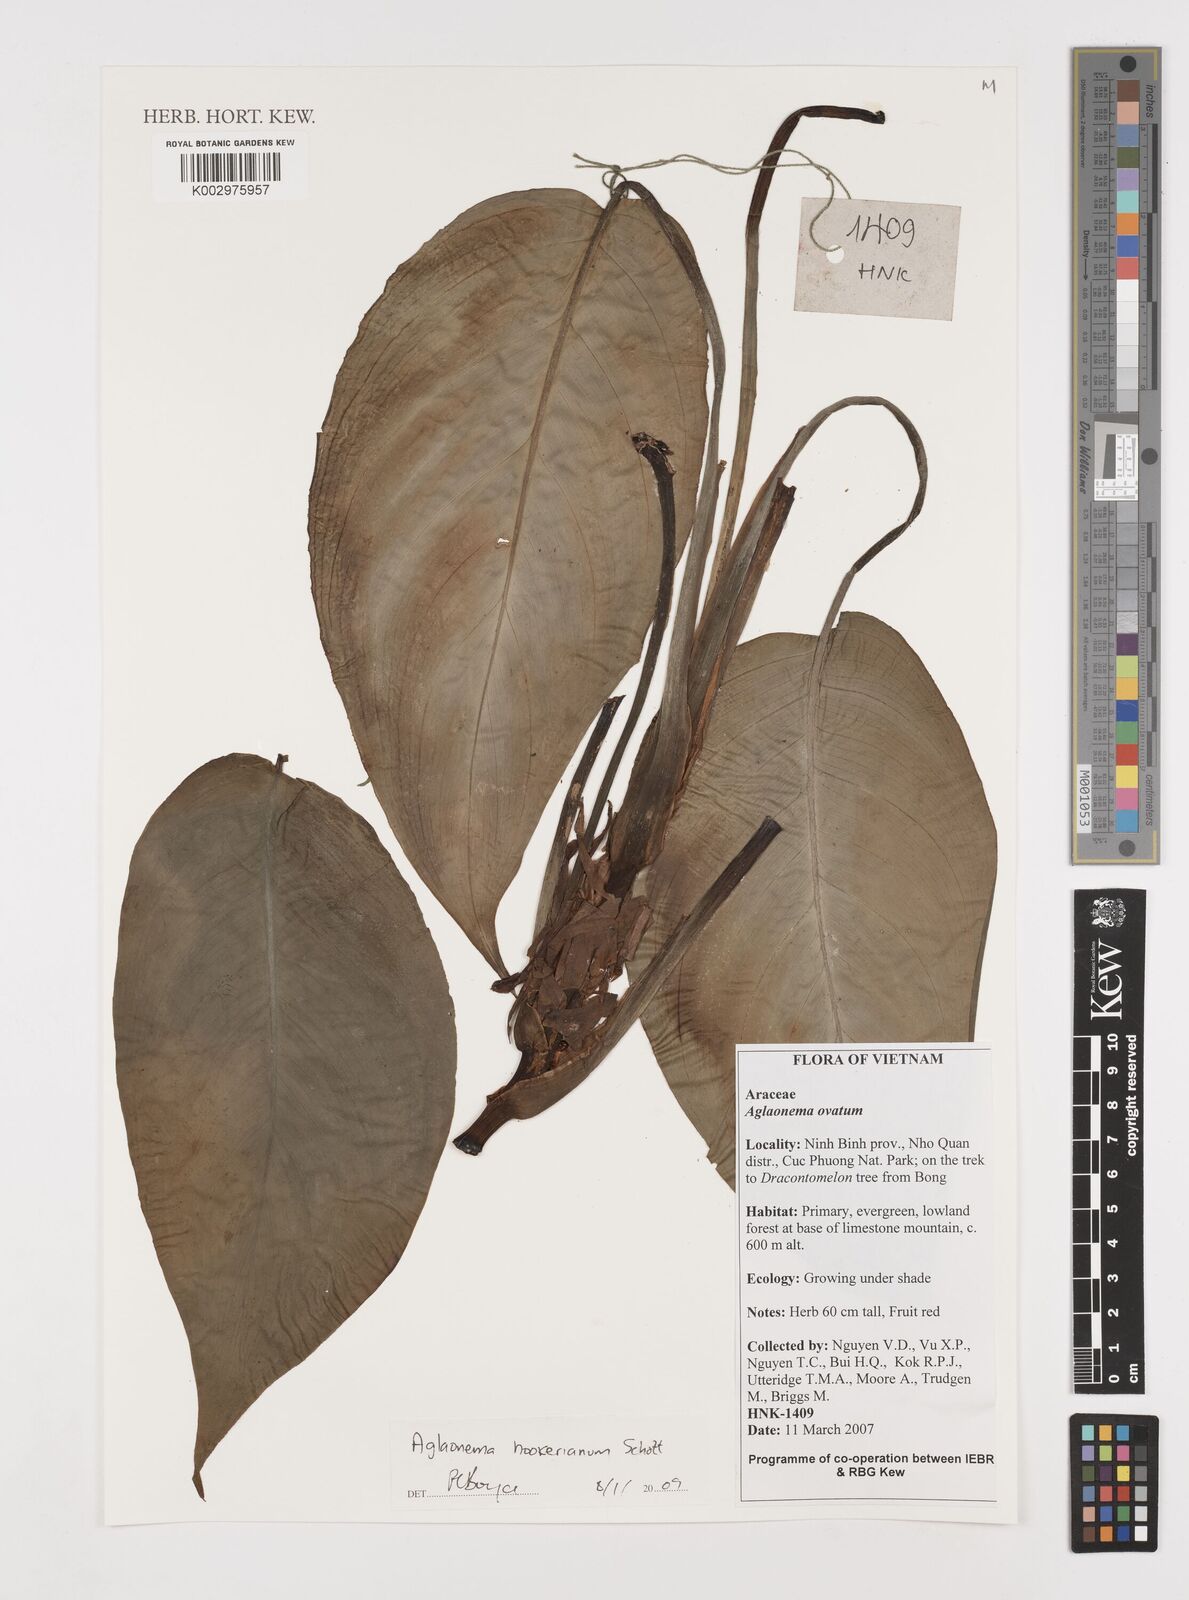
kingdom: Plantae
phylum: Tracheophyta
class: Liliopsida
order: Alismatales
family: Araceae
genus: Aglaonema
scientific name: Aglaonema hookerianum
